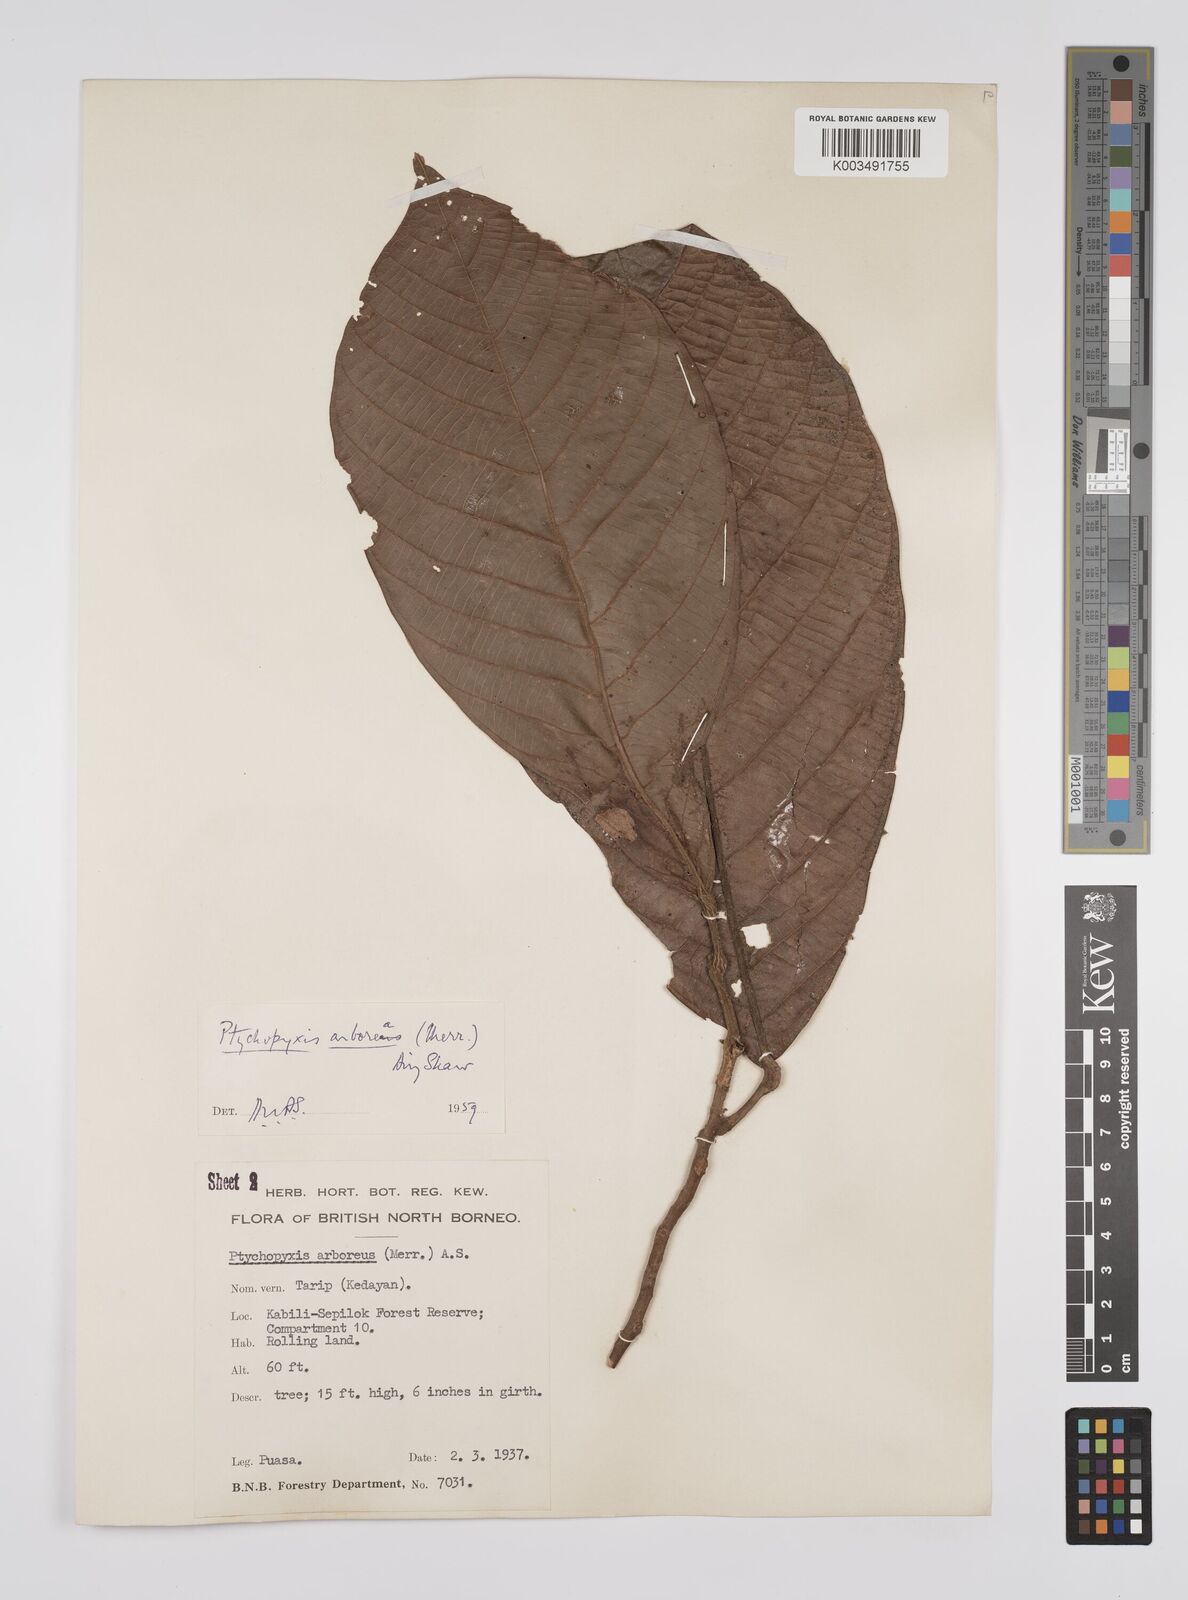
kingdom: Plantae
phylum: Tracheophyta
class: Magnoliopsida
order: Malpighiales
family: Euphorbiaceae
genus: Ptychopyxis
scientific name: Ptychopyxis arborea
